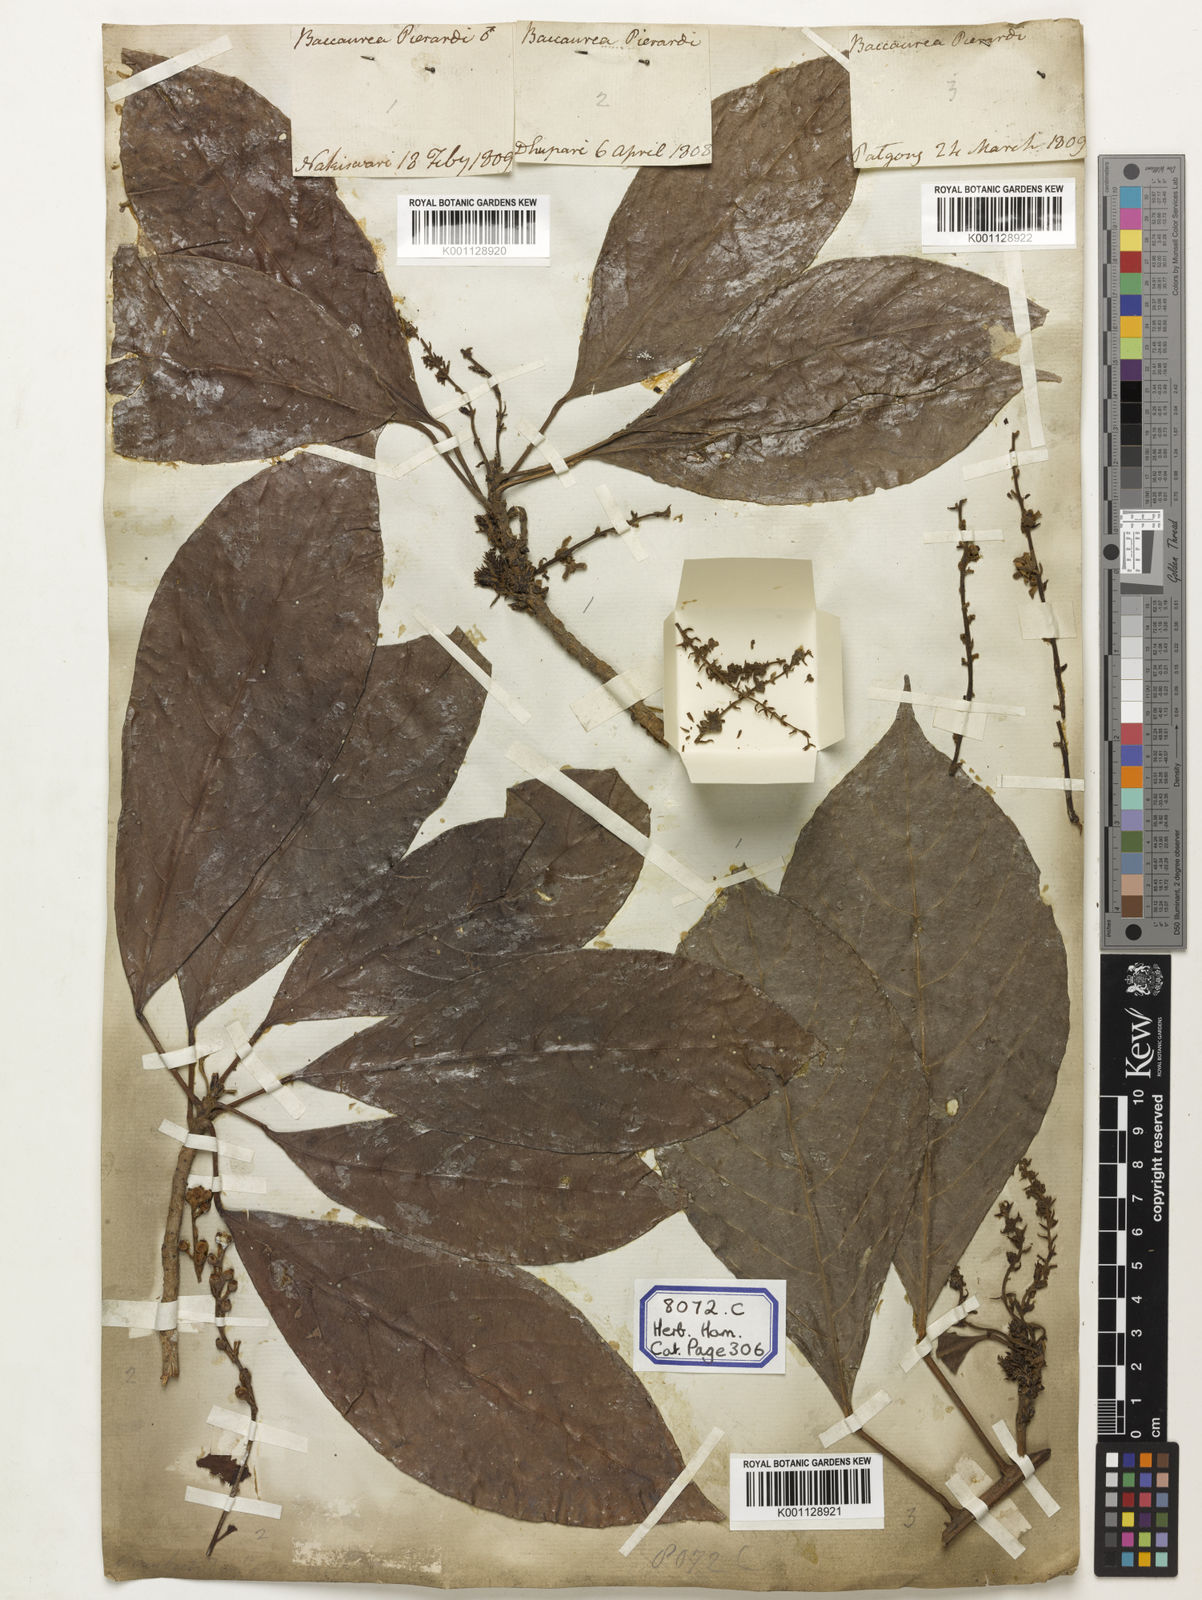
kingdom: Plantae
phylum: Tracheophyta
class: Magnoliopsida
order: Malpighiales
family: Phyllanthaceae
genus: Baccaurea
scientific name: Baccaurea ramiflora
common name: Baccaurea
